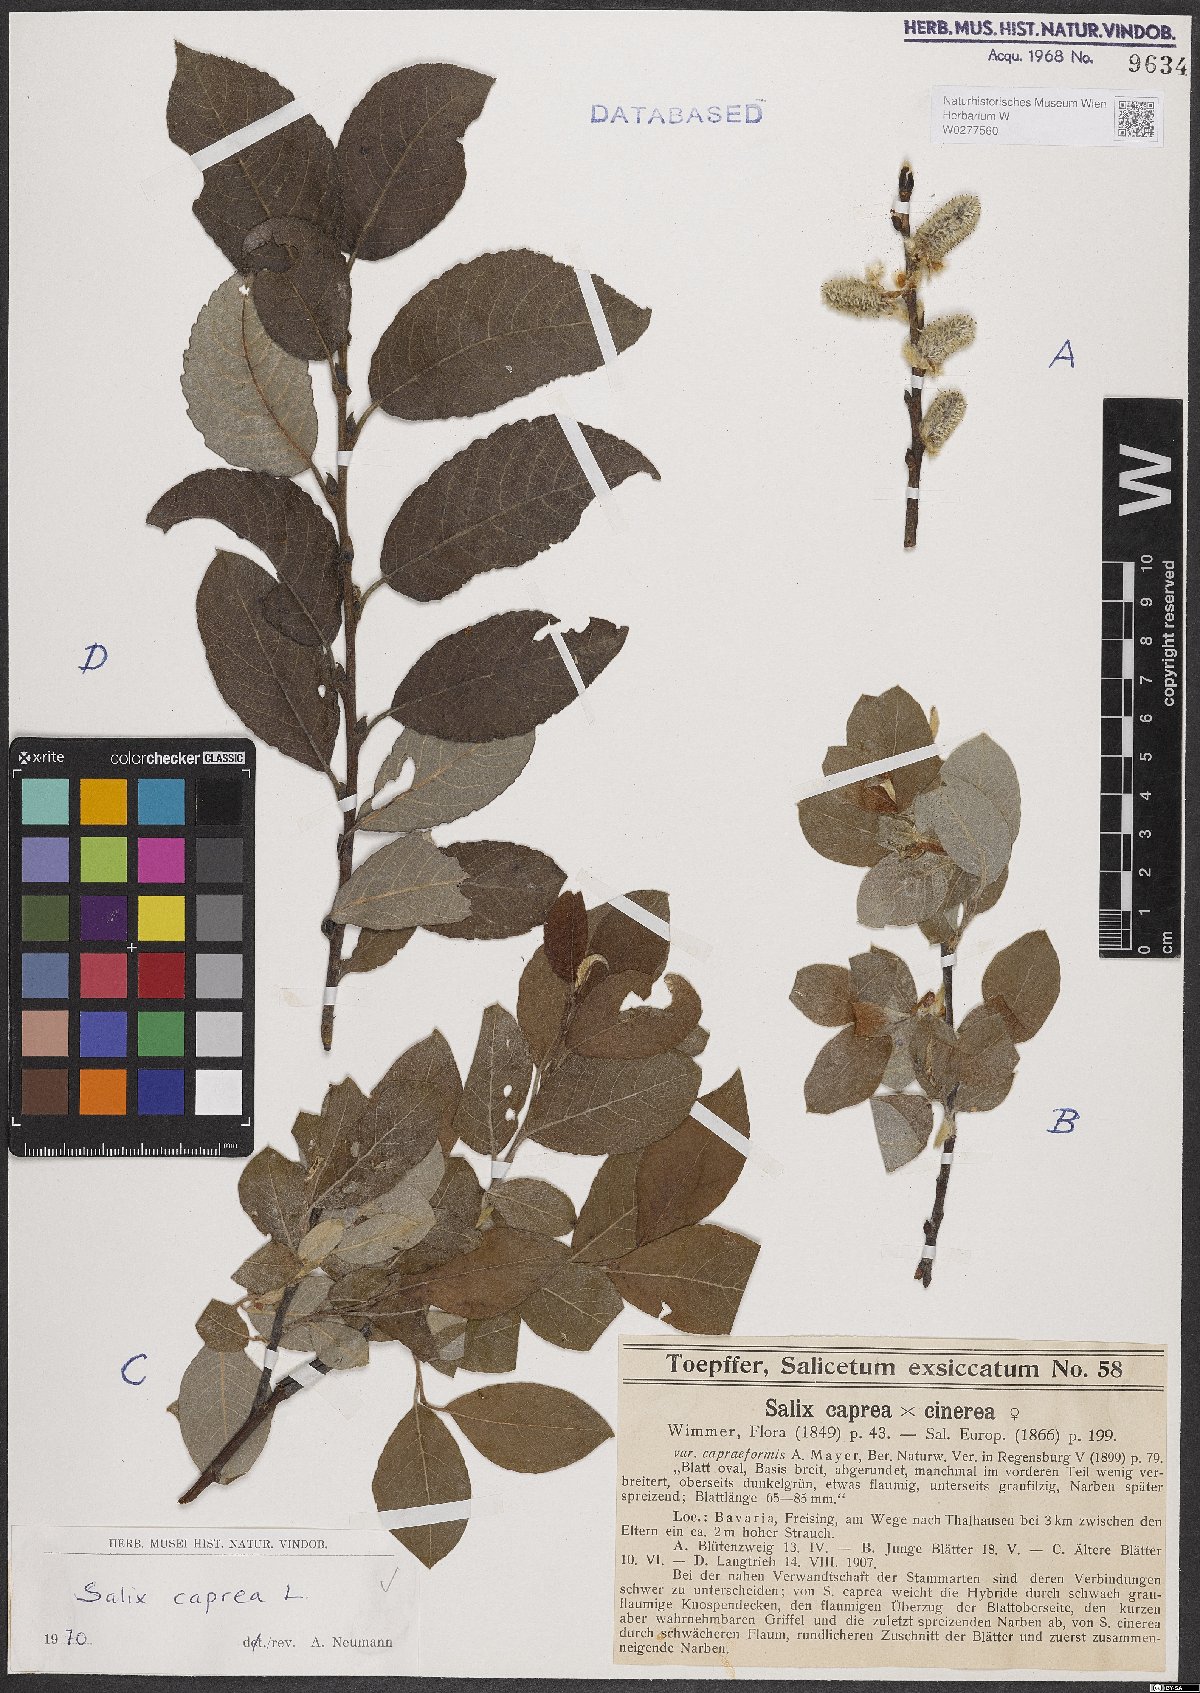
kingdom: Plantae
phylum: Tracheophyta
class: Magnoliopsida
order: Malpighiales
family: Salicaceae
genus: Salix
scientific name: Salix caprea
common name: Goat willow
